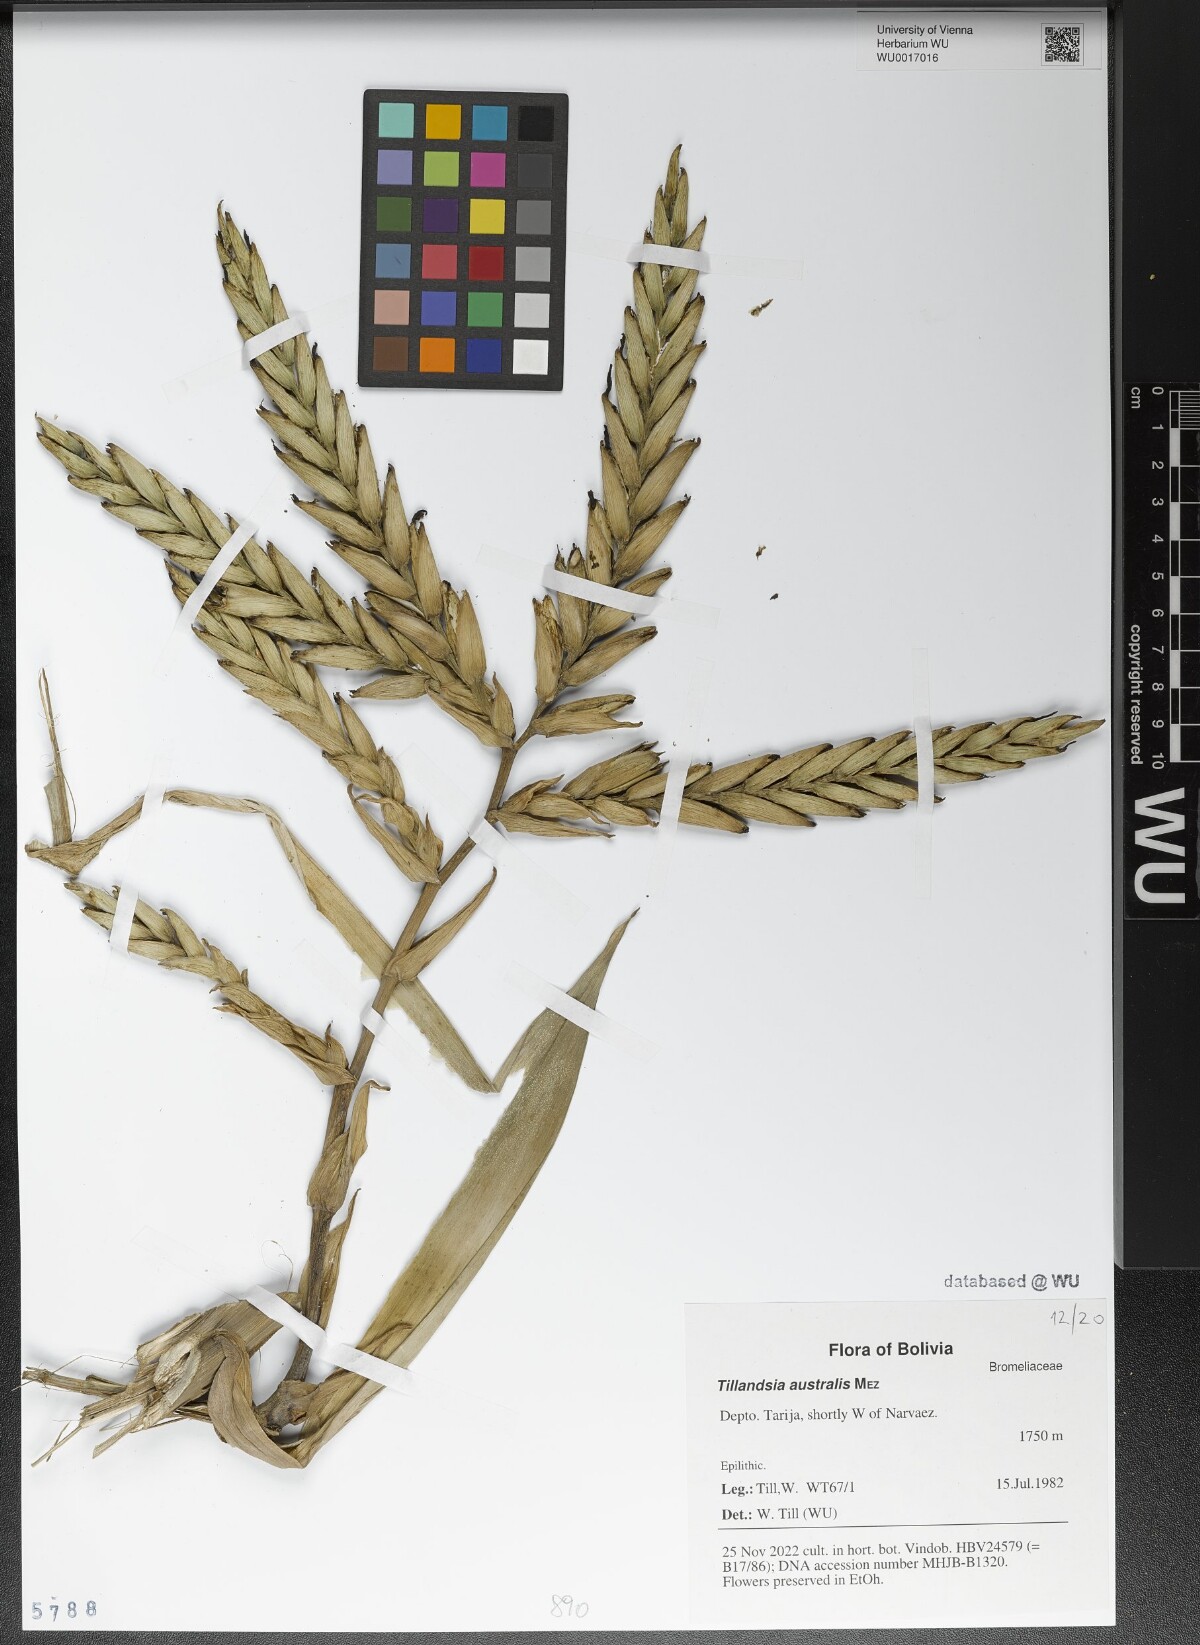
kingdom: Plantae
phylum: Tracheophyta
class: Liliopsida
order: Poales
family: Bromeliaceae
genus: Tillandsia
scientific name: Tillandsia australis
